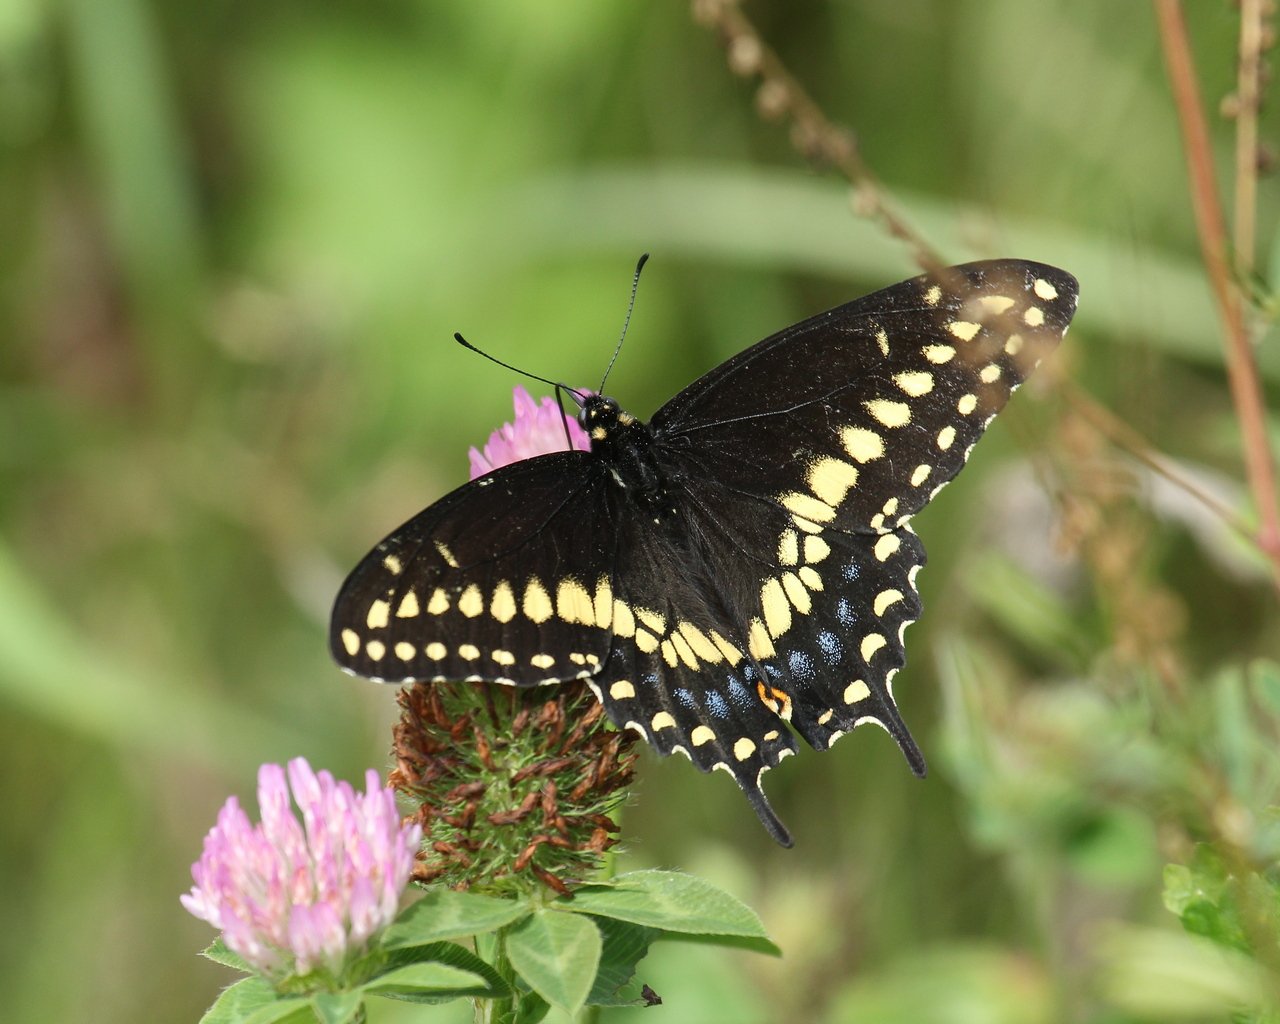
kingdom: Animalia
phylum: Arthropoda
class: Insecta
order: Lepidoptera
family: Papilionidae
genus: Papilio
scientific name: Papilio polyxenes
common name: Black Swallowtail
